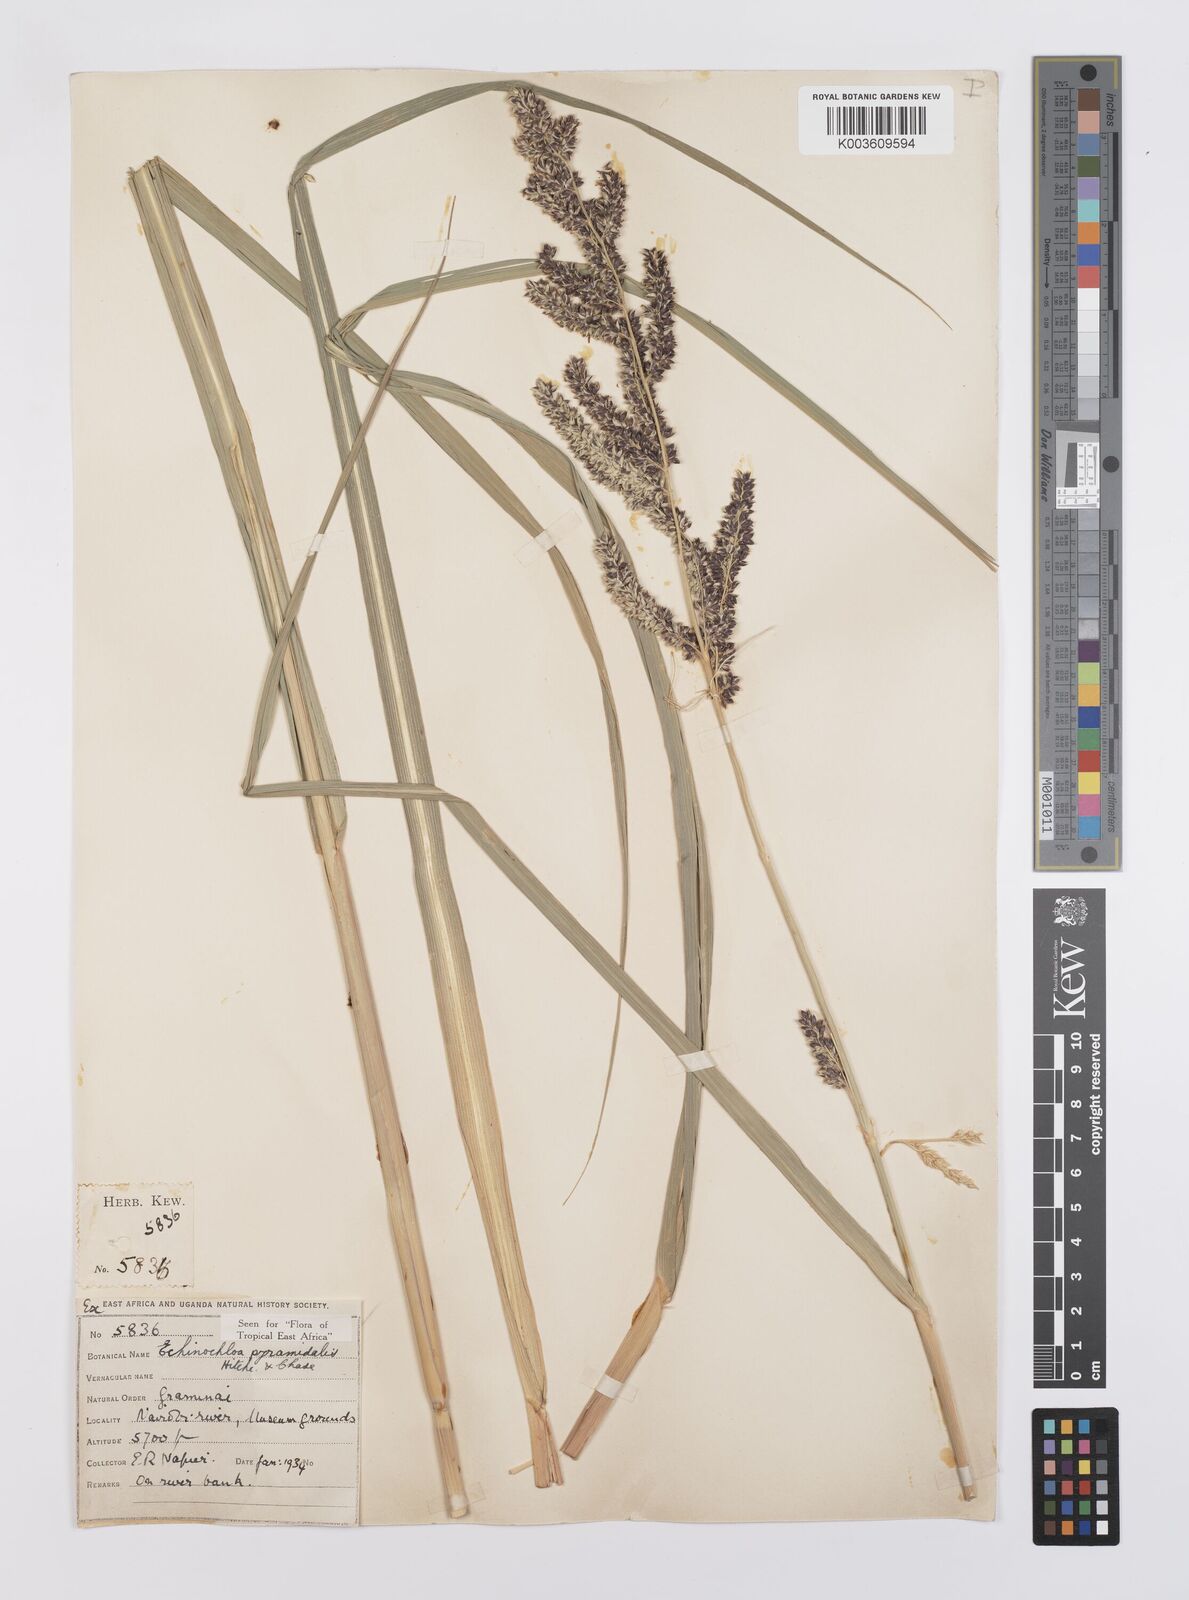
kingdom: Plantae
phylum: Tracheophyta
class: Liliopsida
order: Poales
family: Poaceae
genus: Echinochloa
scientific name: Echinochloa pyramidalis
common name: Antelope grass
